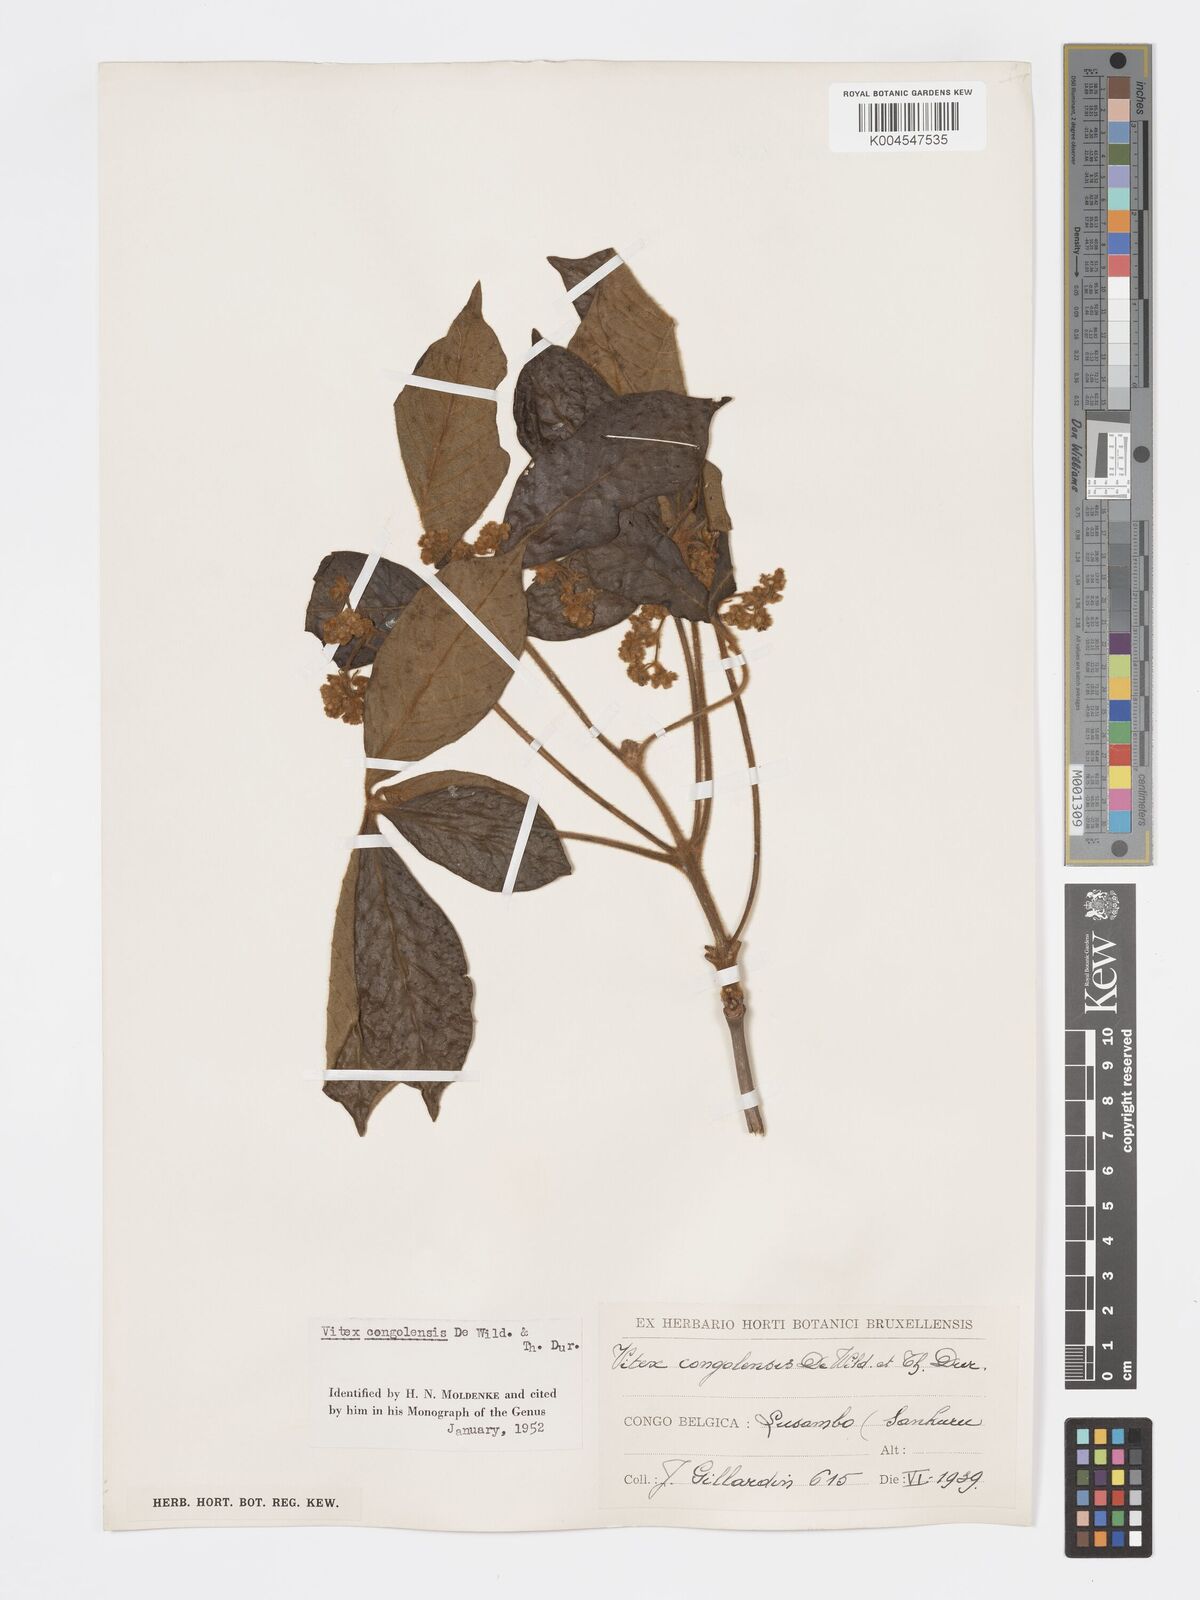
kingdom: Plantae
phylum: Tracheophyta
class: Magnoliopsida
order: Lamiales
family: Lamiaceae
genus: Vitex
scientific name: Vitex congolensis
